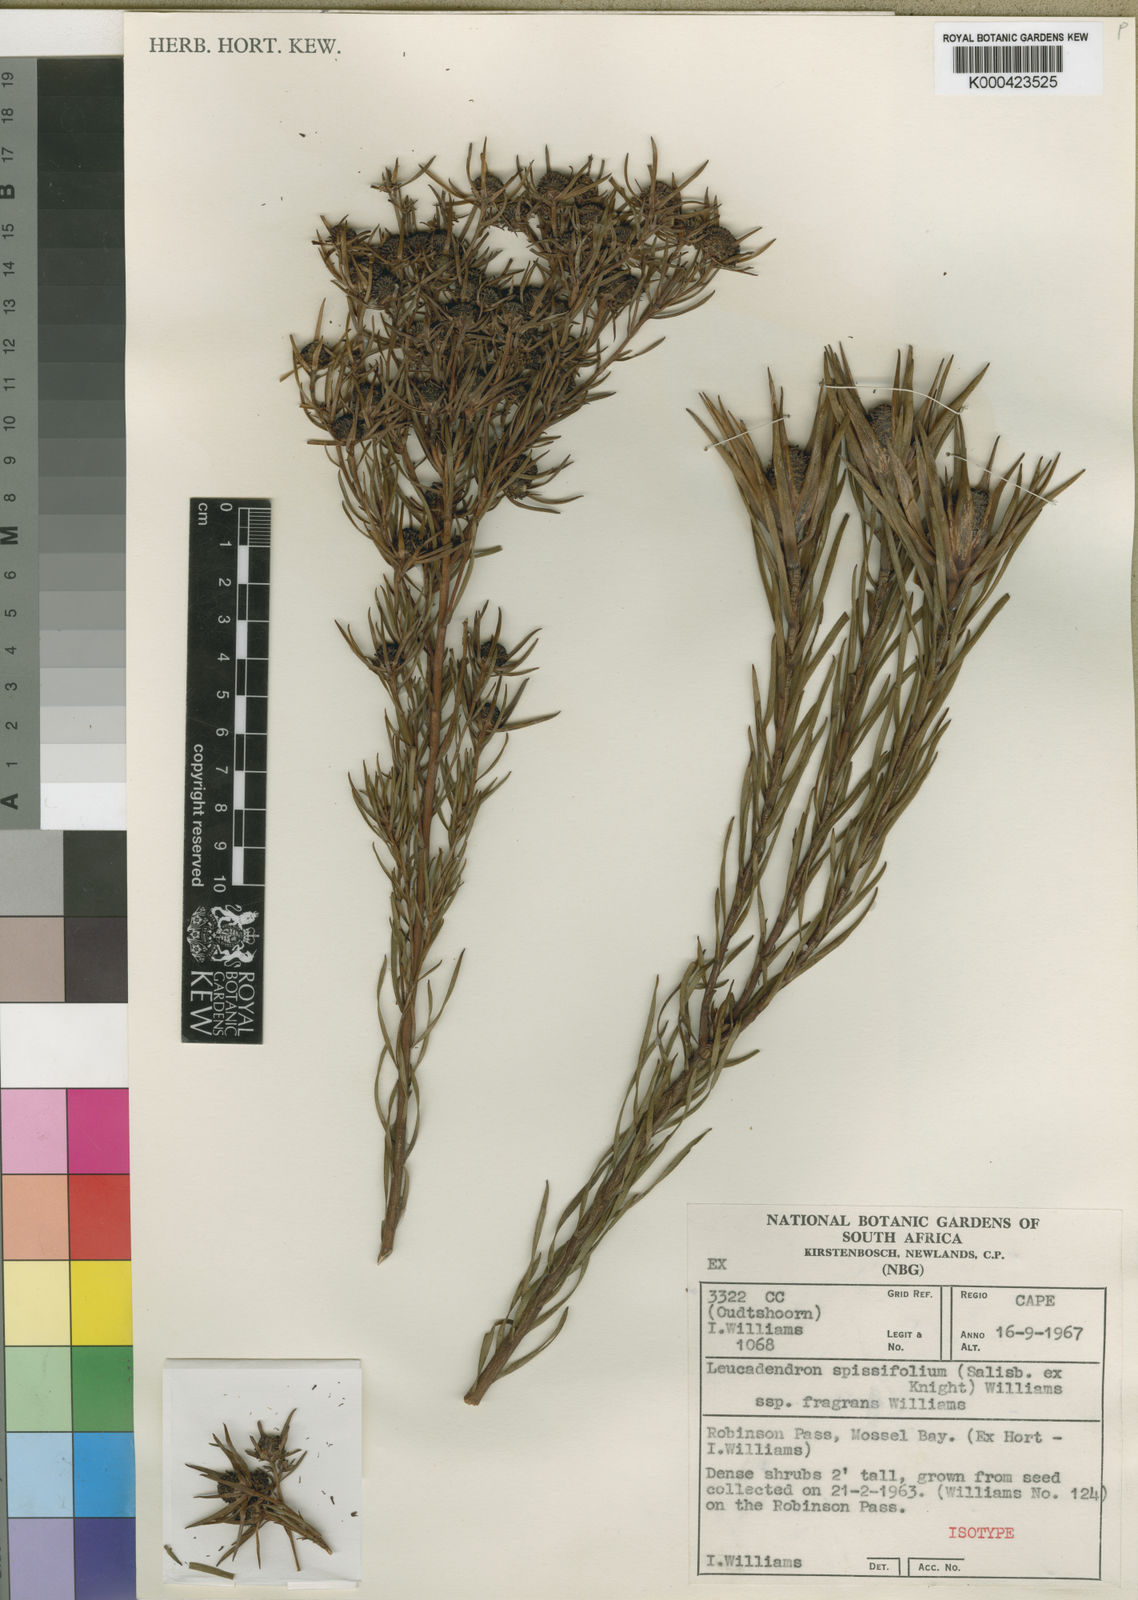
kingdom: Plantae
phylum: Tracheophyta
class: Magnoliopsida
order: Proteales
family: Proteaceae
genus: Leucadendron
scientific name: Leucadendron spissifolium
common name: Spear-leaf conebush
